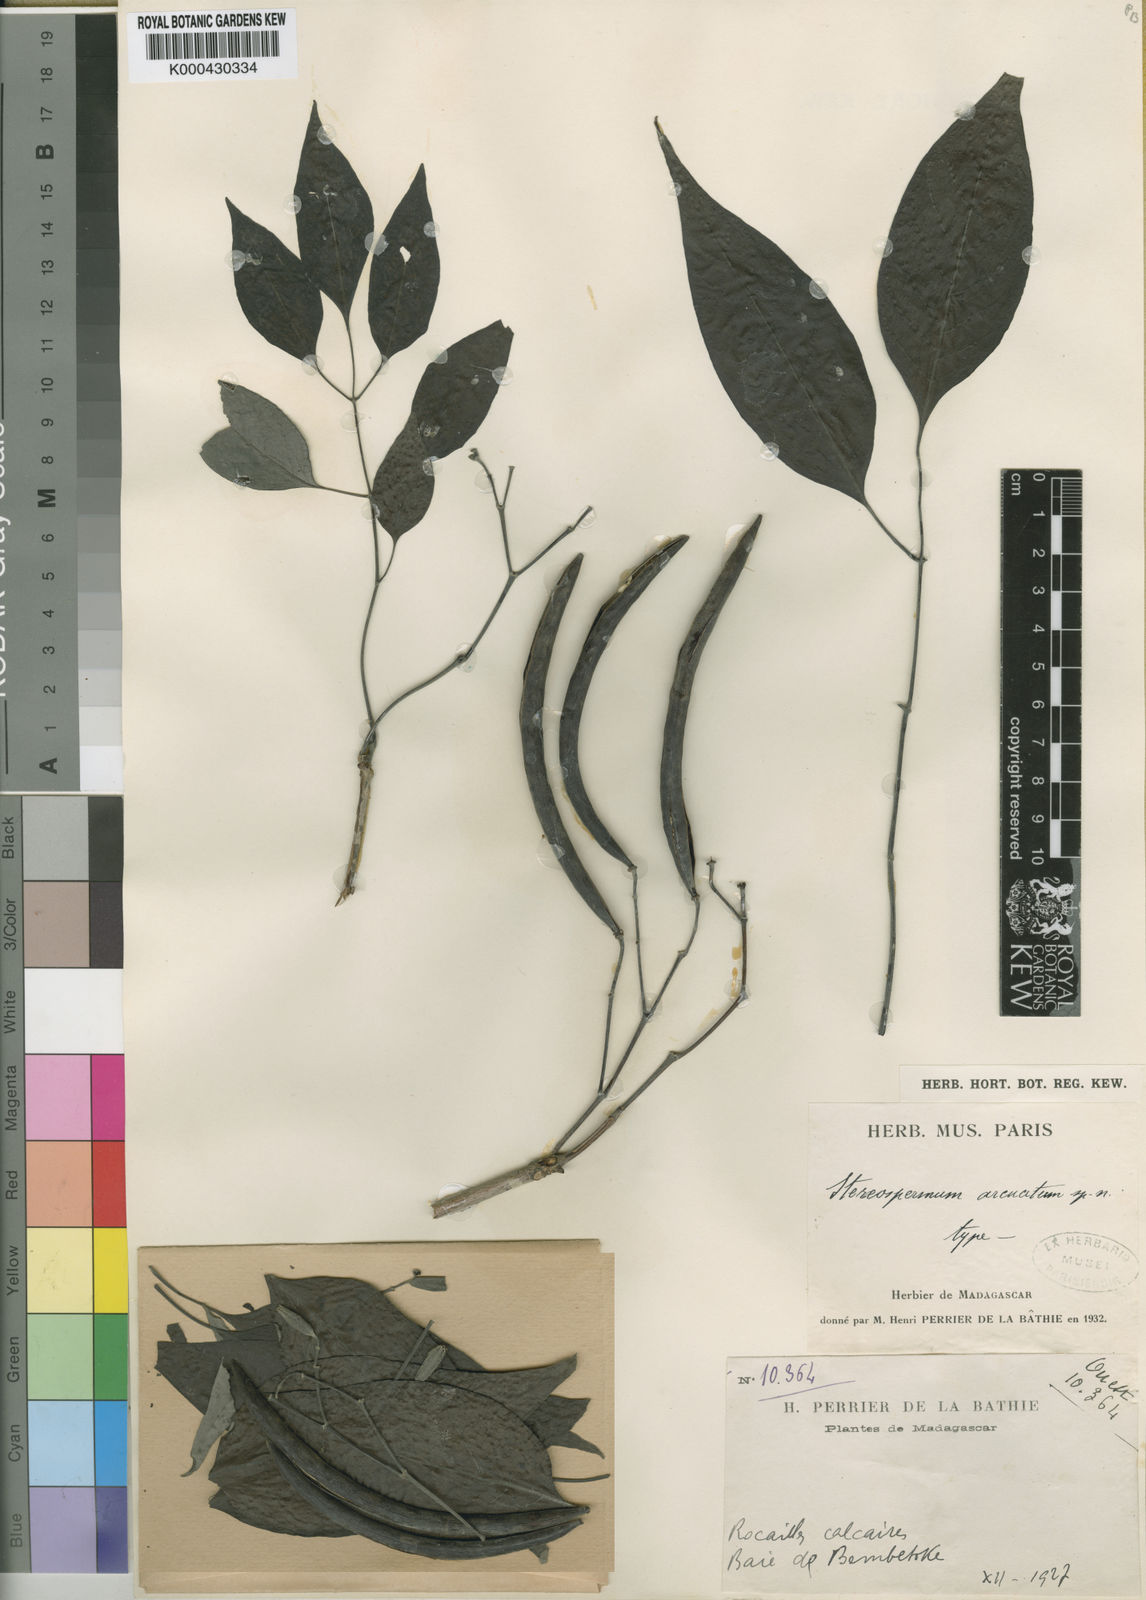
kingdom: Plantae
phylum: Tracheophyta
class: Magnoliopsida
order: Lamiales
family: Bignoniaceae
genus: Stereospermum
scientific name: Stereospermum arcuatum
